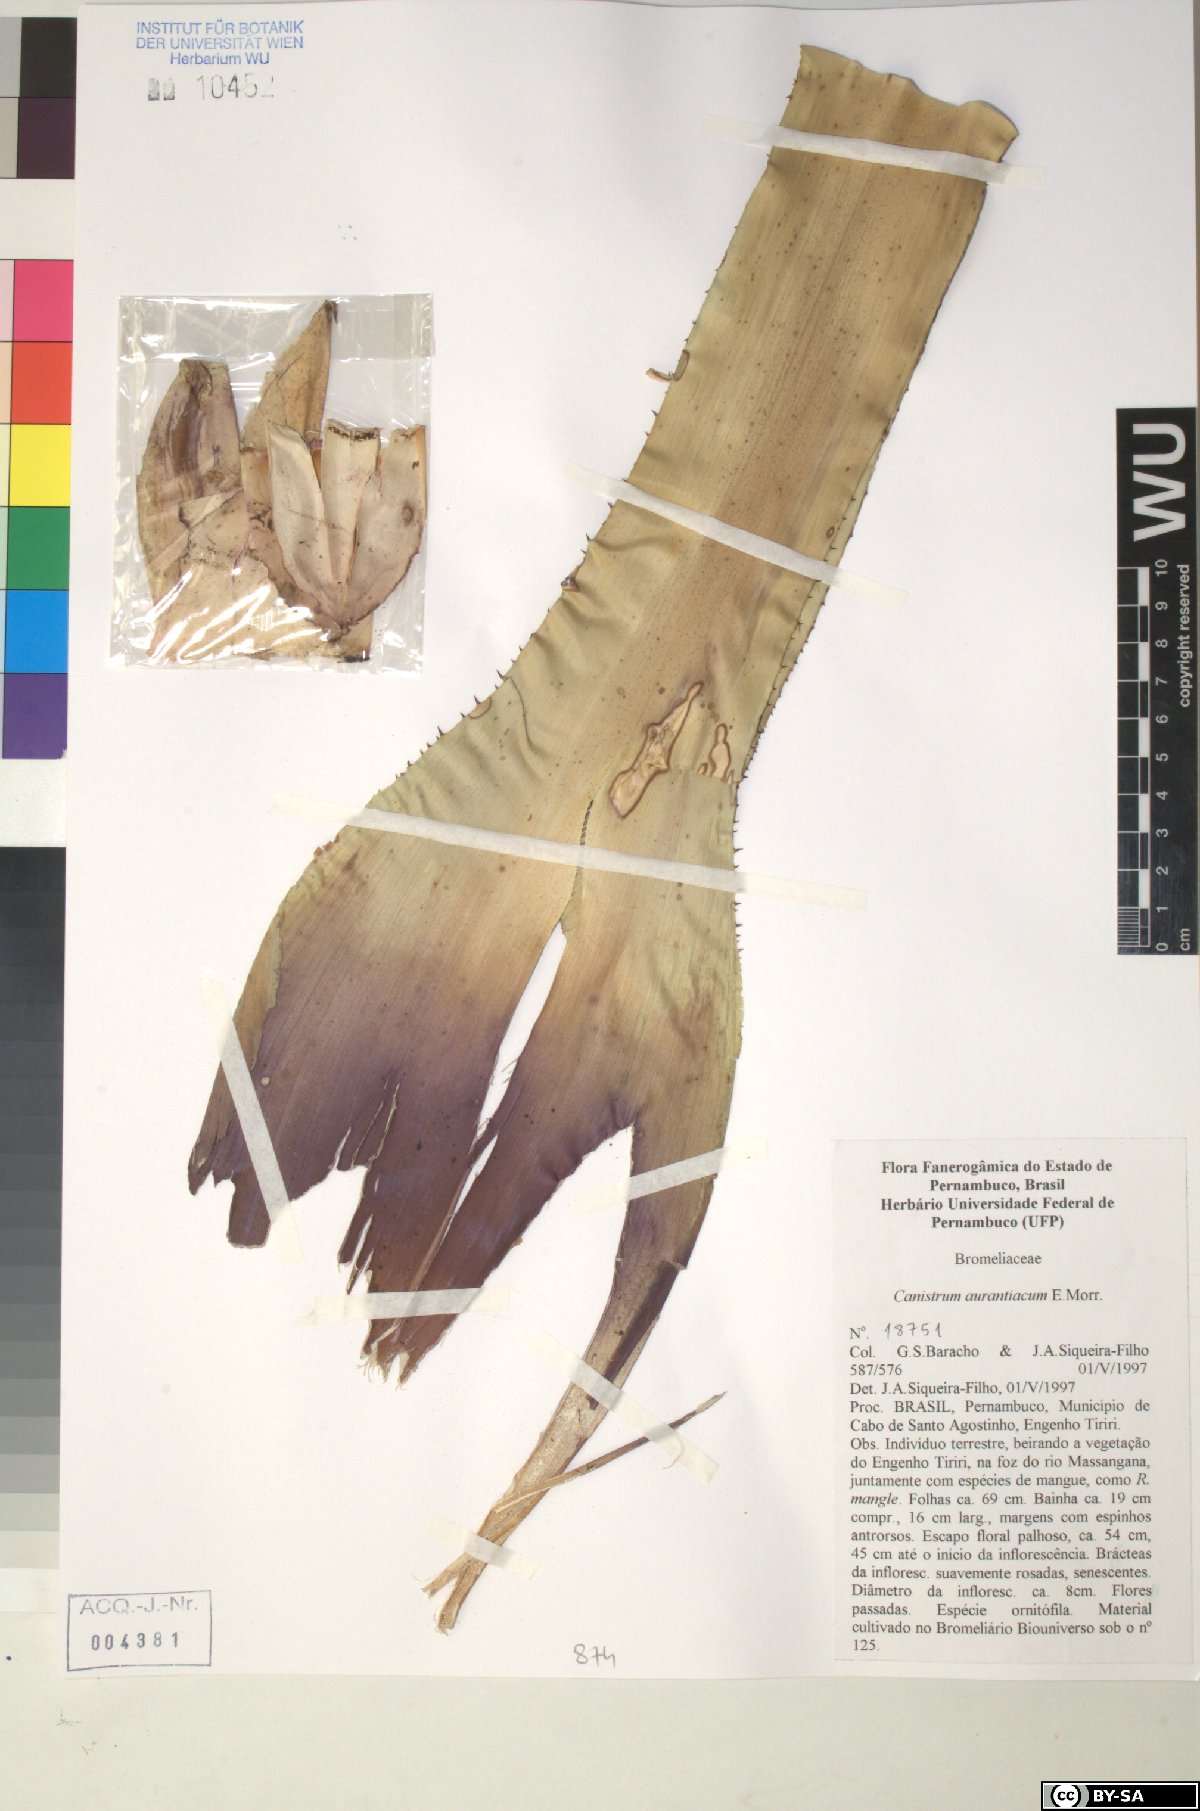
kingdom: Plantae
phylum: Tracheophyta
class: Liliopsida
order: Poales
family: Bromeliaceae
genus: Canistrum
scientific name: Canistrum aurantiacum
